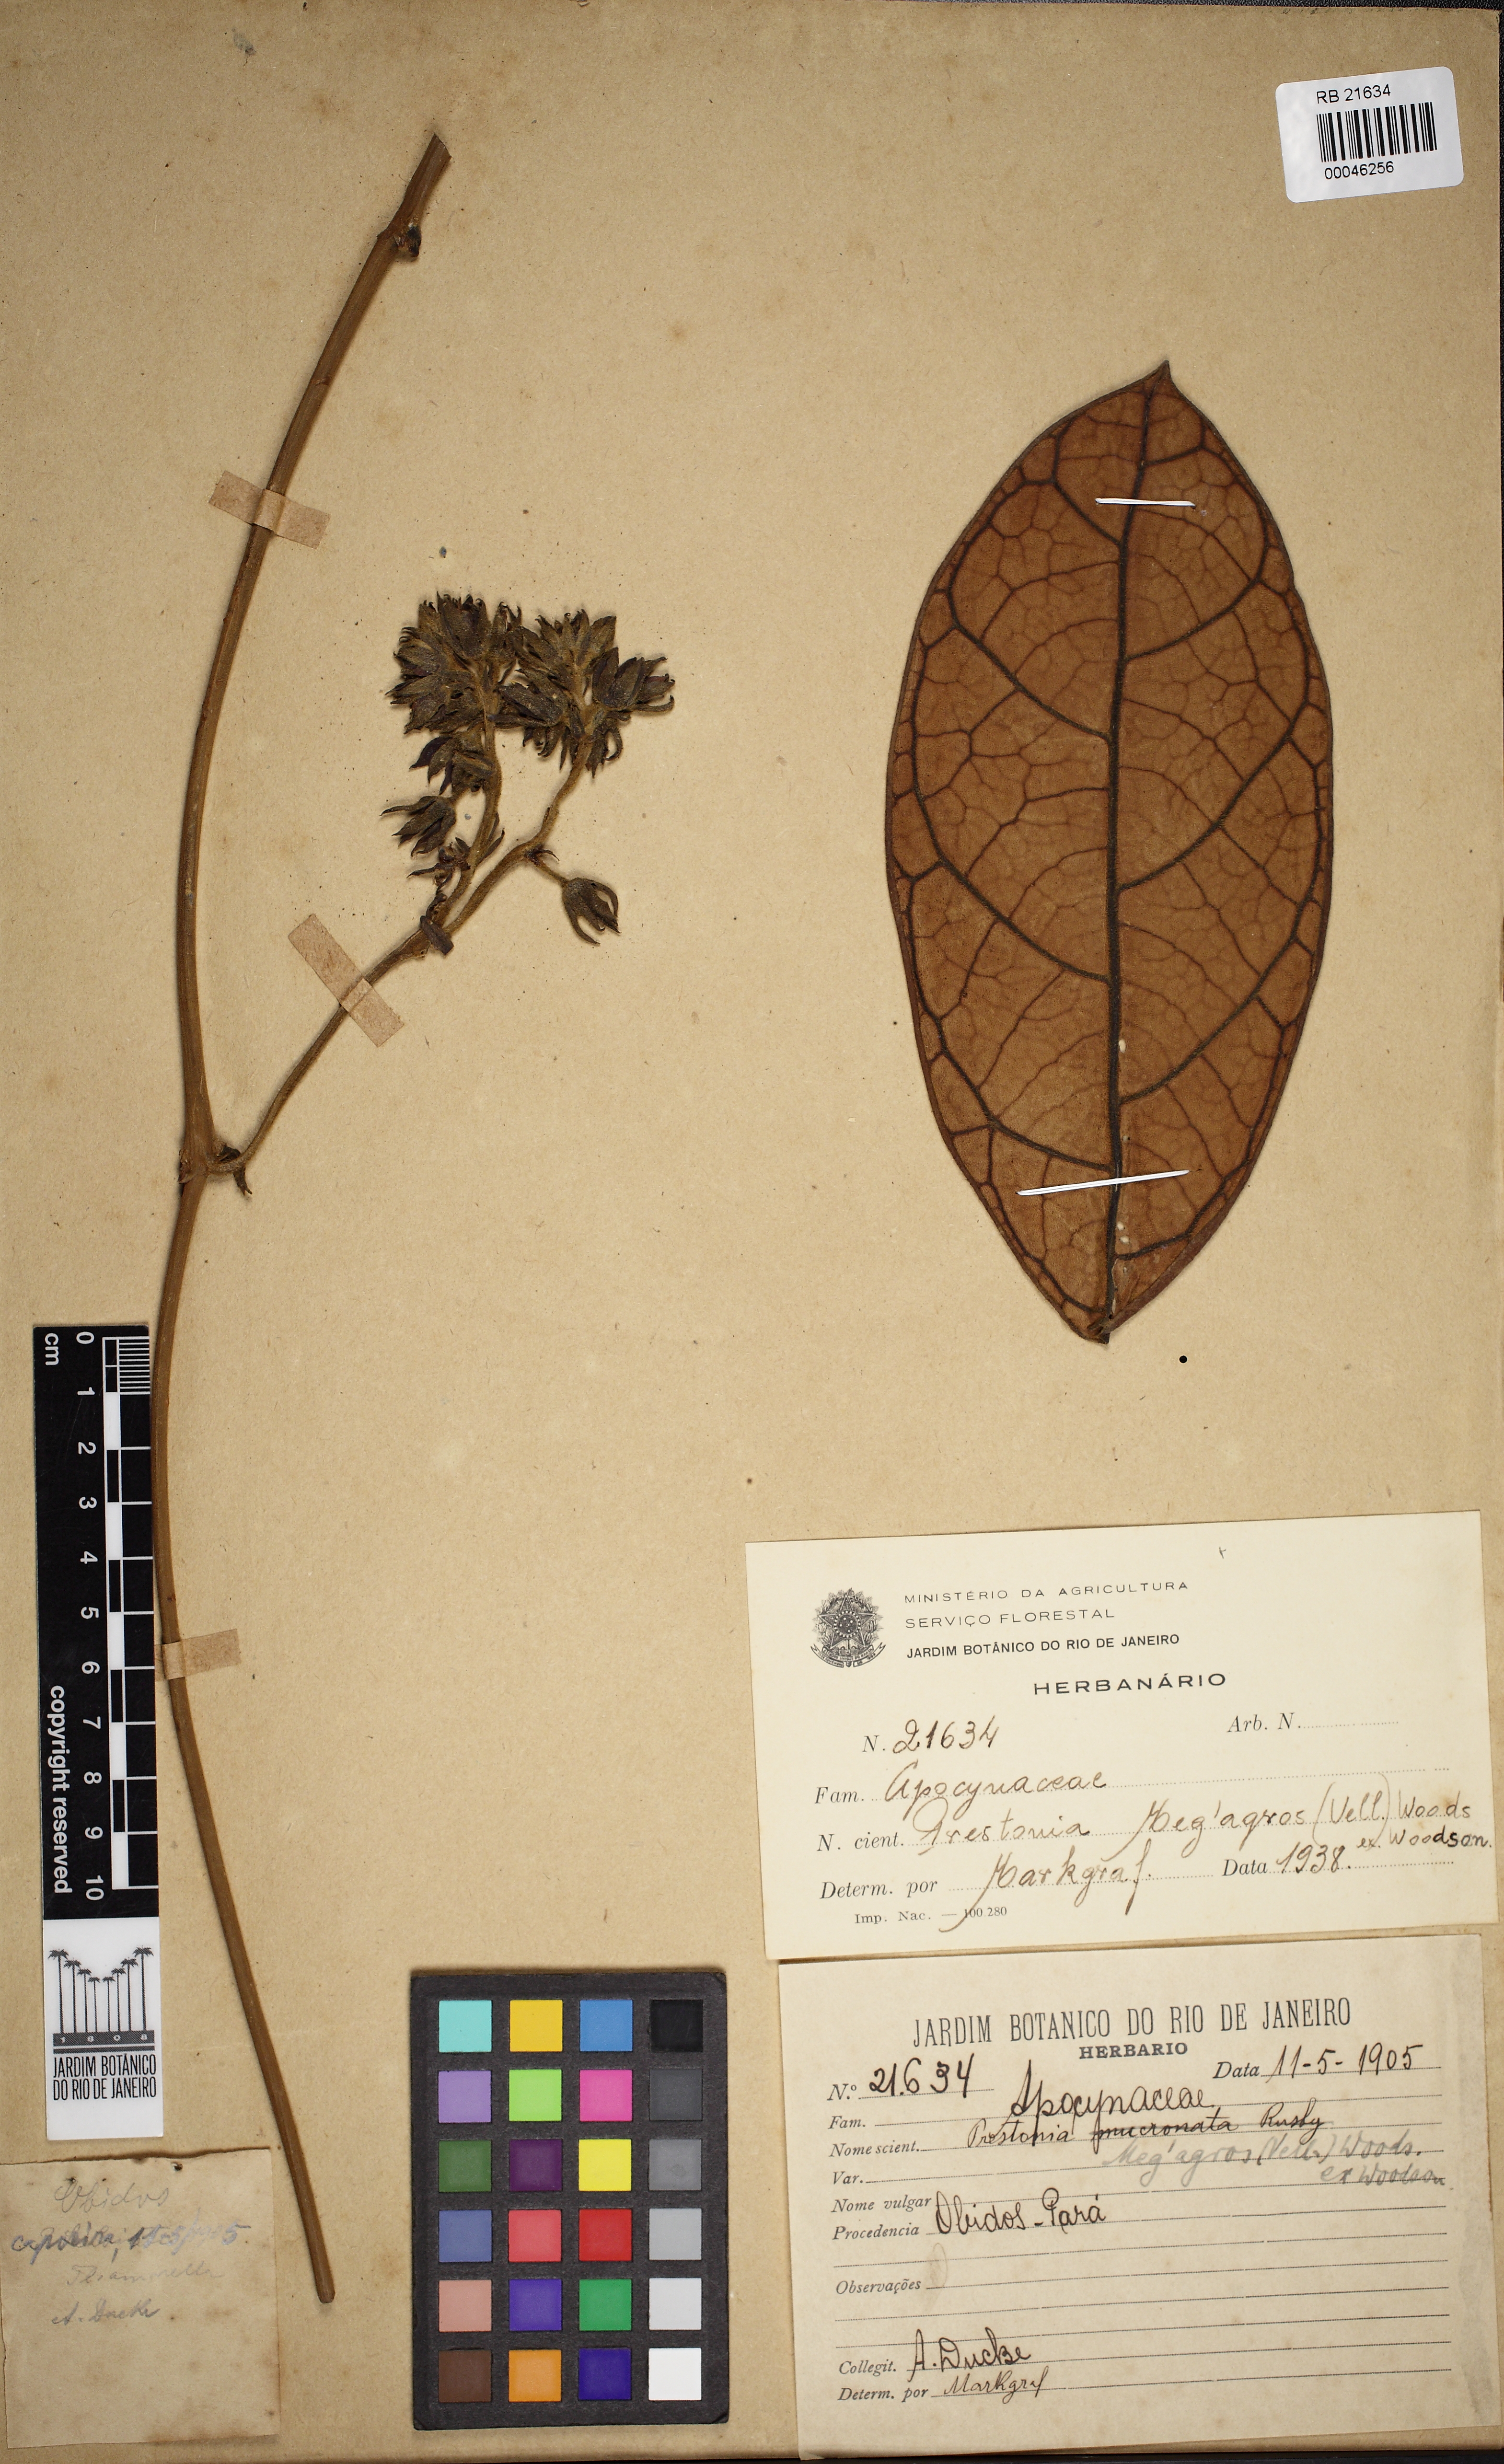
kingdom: Plantae
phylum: Tracheophyta
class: Magnoliopsida
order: Gentianales
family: Apocynaceae
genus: Prestonia
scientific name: Prestonia megagros
